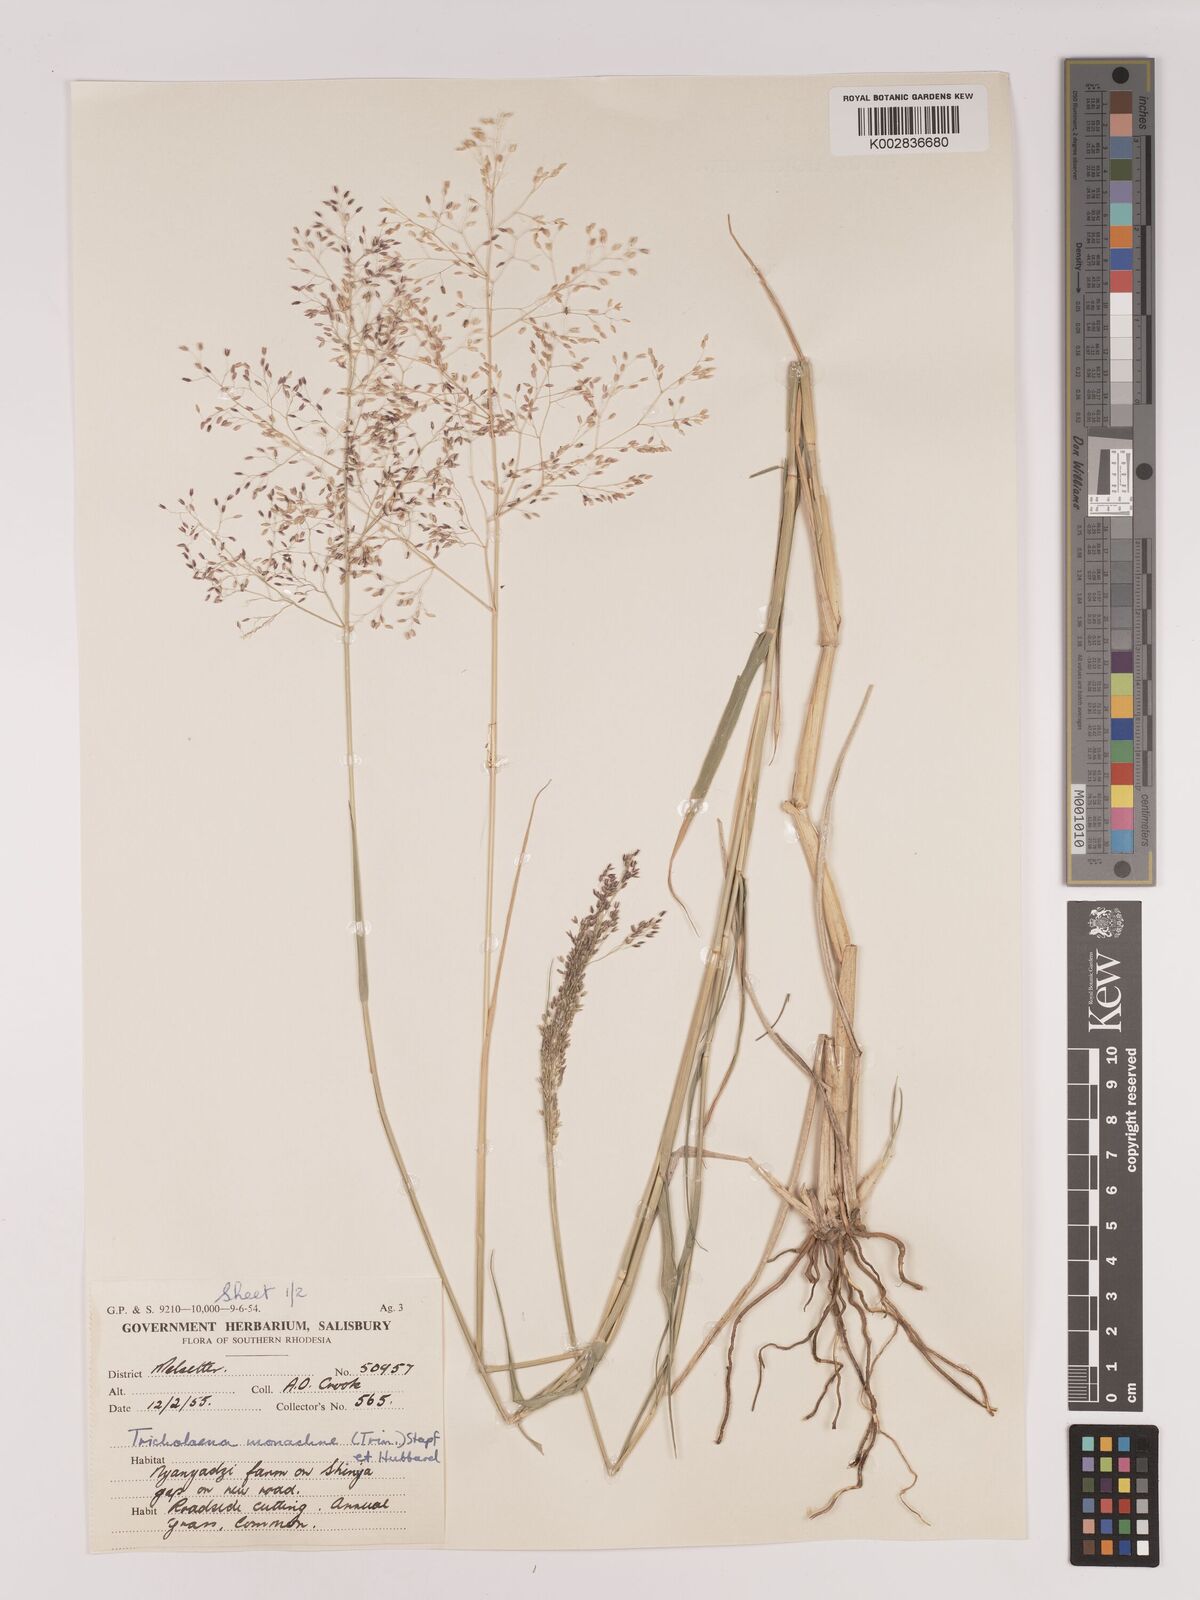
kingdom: Plantae
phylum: Tracheophyta
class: Liliopsida
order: Poales
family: Poaceae
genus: Tricholaena
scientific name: Tricholaena monachne
